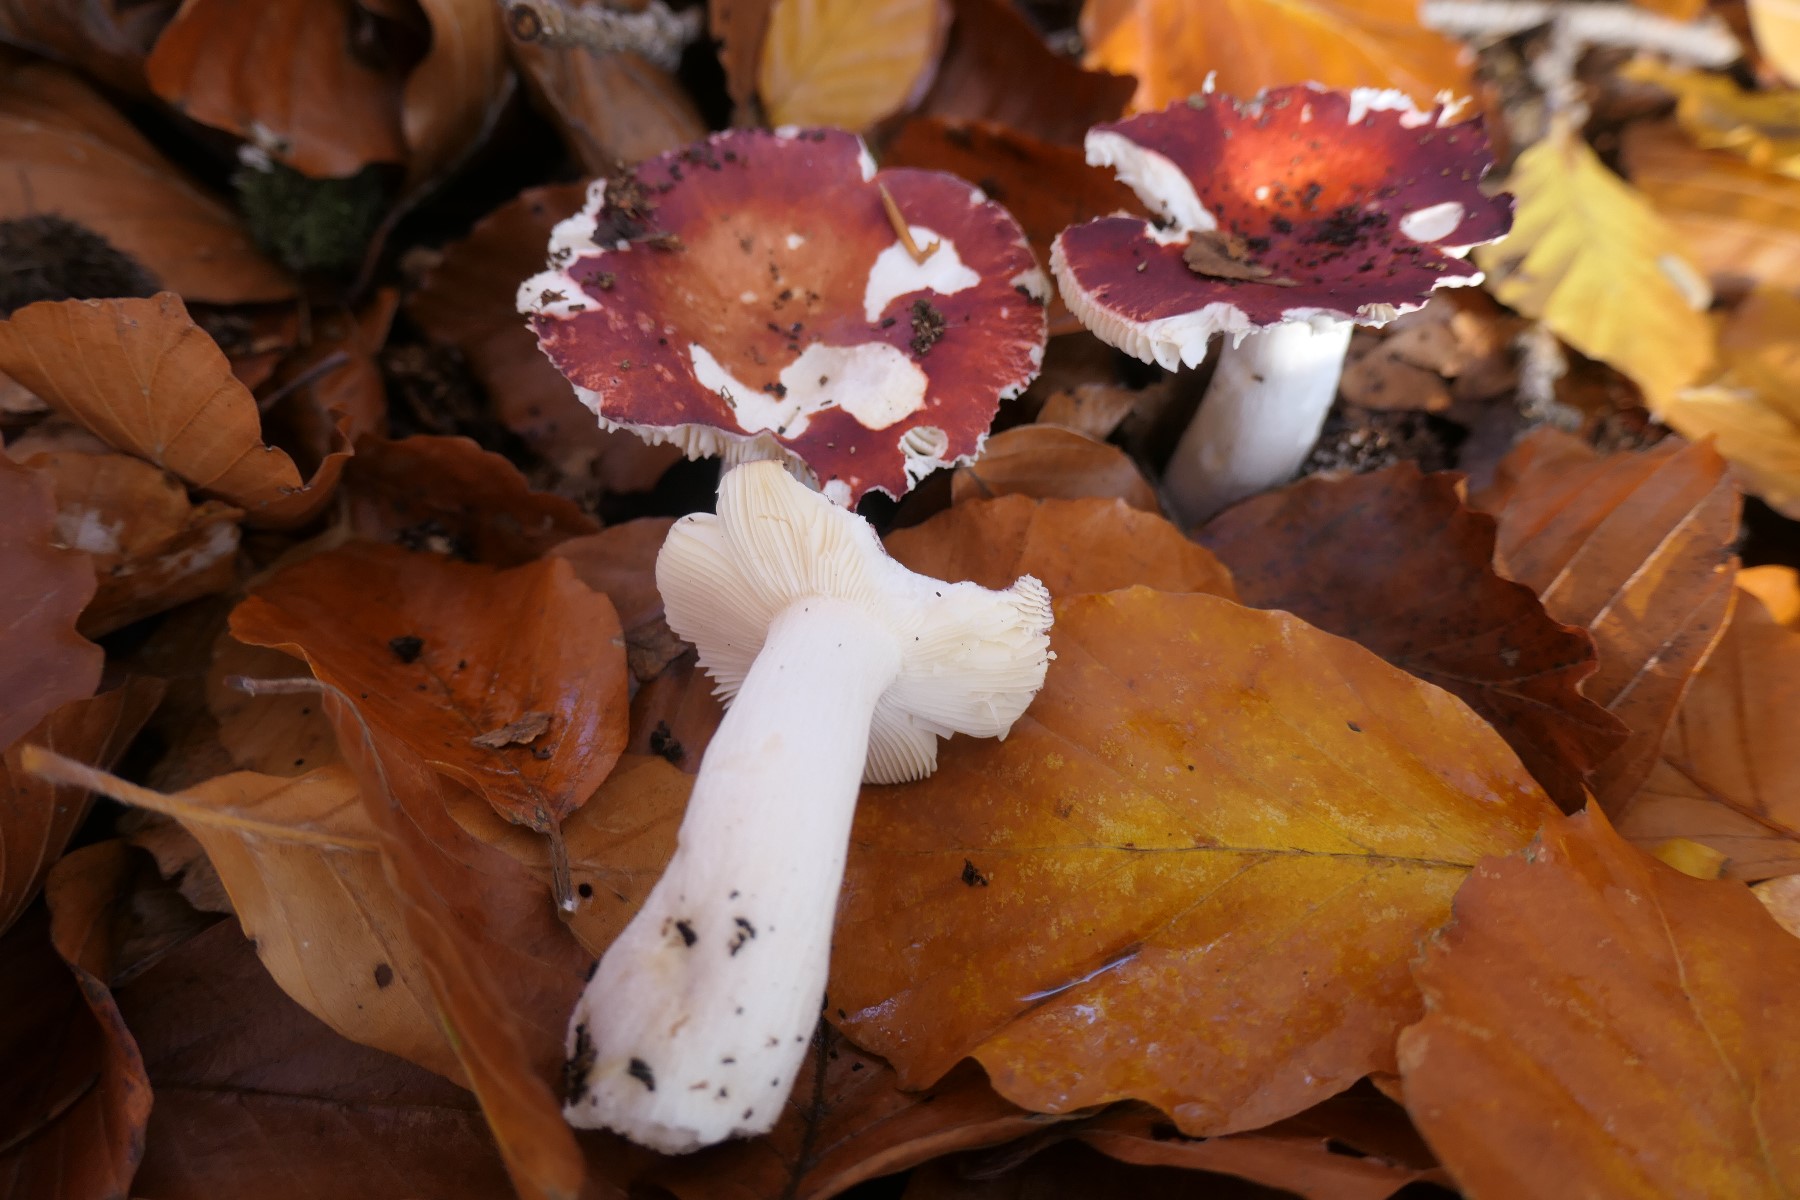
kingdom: Fungi
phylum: Basidiomycota
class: Agaricomycetes
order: Russulales
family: Russulaceae
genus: Russula
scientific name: Russula velenovskyi
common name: orangerød skørhat
